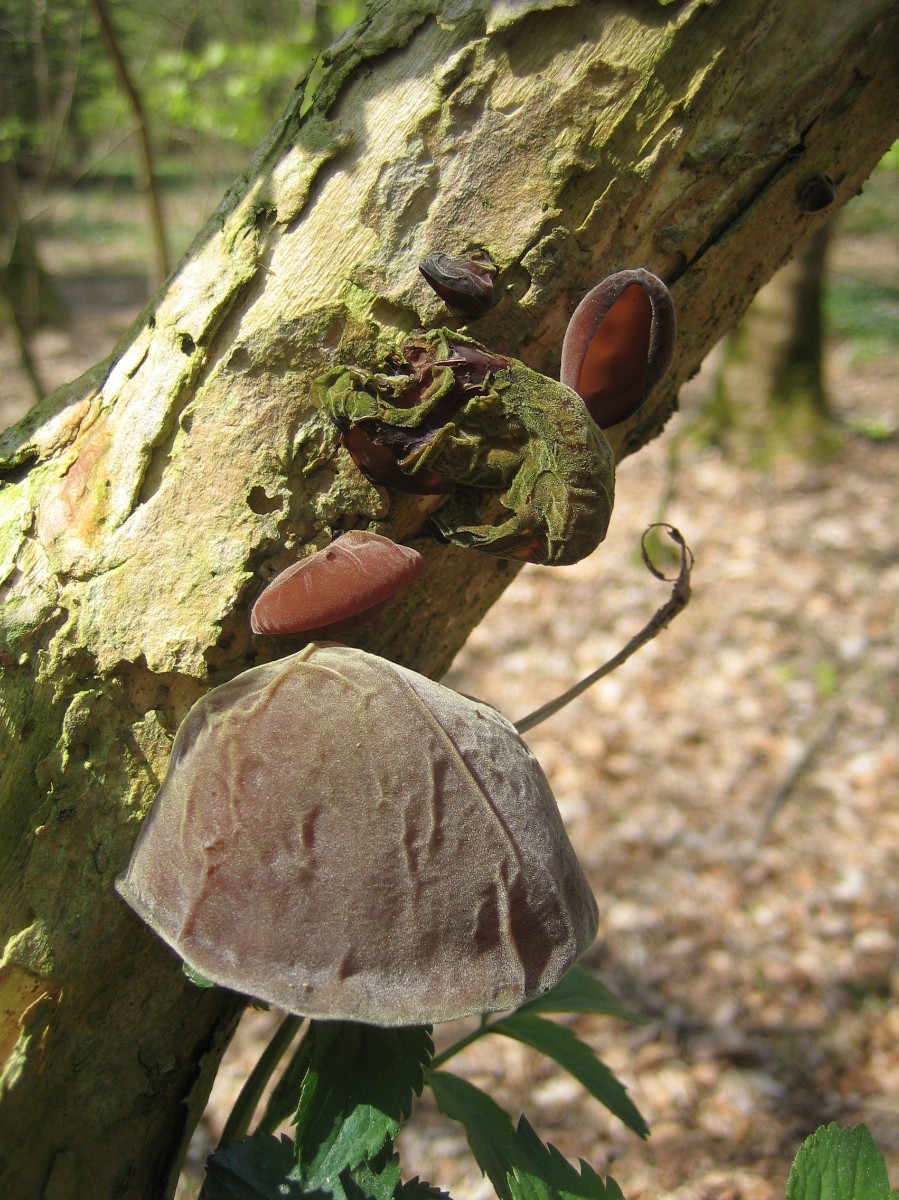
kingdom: Fungi
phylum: Basidiomycota
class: Agaricomycetes
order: Auriculariales
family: Auriculariaceae
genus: Auricularia
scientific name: Auricularia auricula-judae
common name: almindelig judasøre
